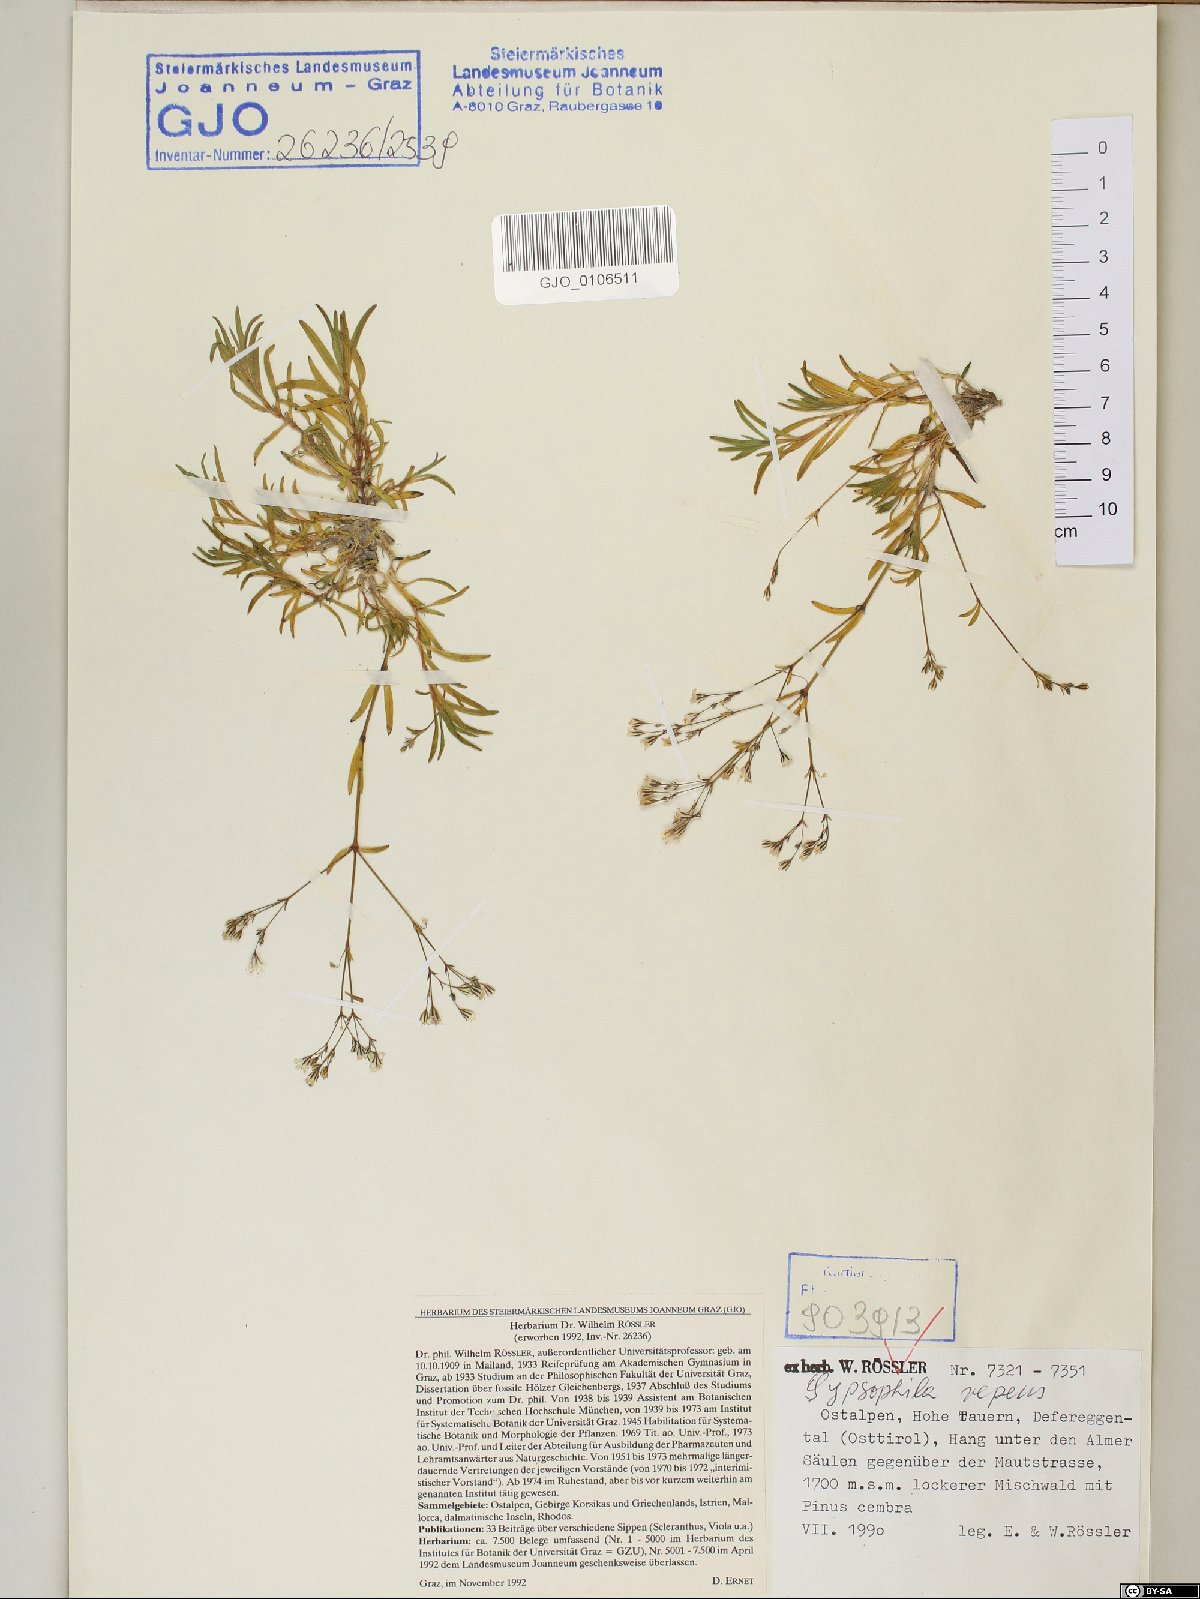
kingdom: Plantae
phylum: Tracheophyta
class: Magnoliopsida
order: Caryophyllales
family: Caryophyllaceae
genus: Gypsophila
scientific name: Gypsophila repens
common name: Creeping baby's-breath
